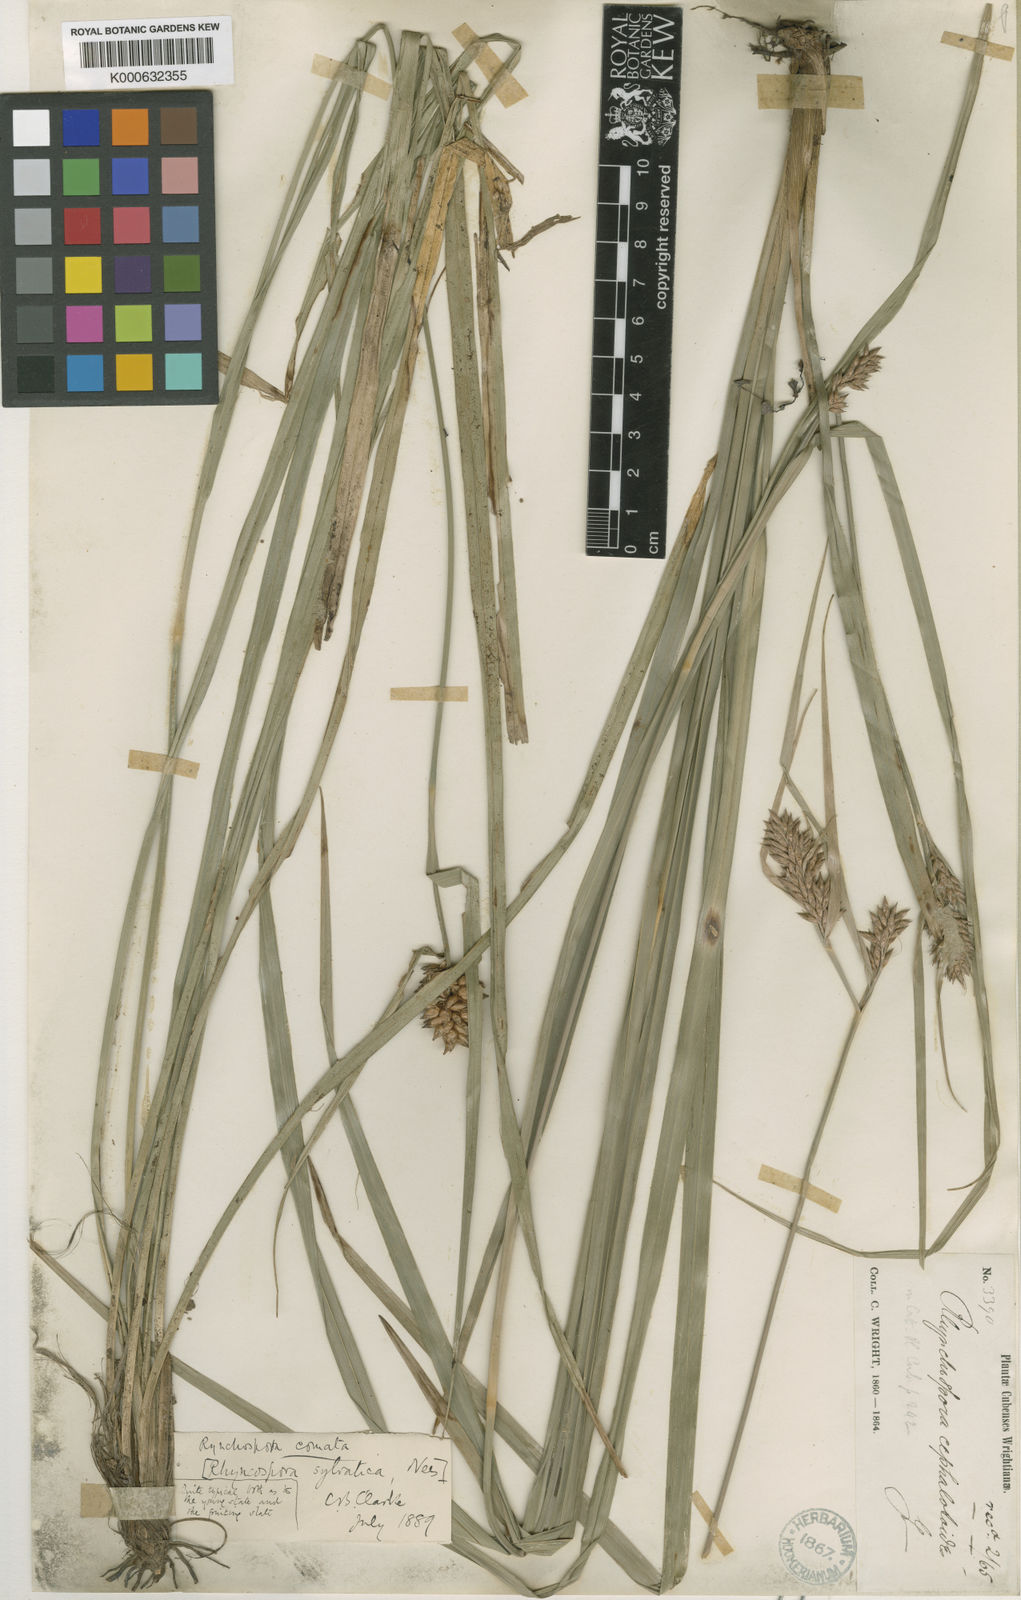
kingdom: Plantae
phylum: Tracheophyta
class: Liliopsida
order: Poales
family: Cyperaceae
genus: Rhynchospora
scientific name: Rhynchospora comata
